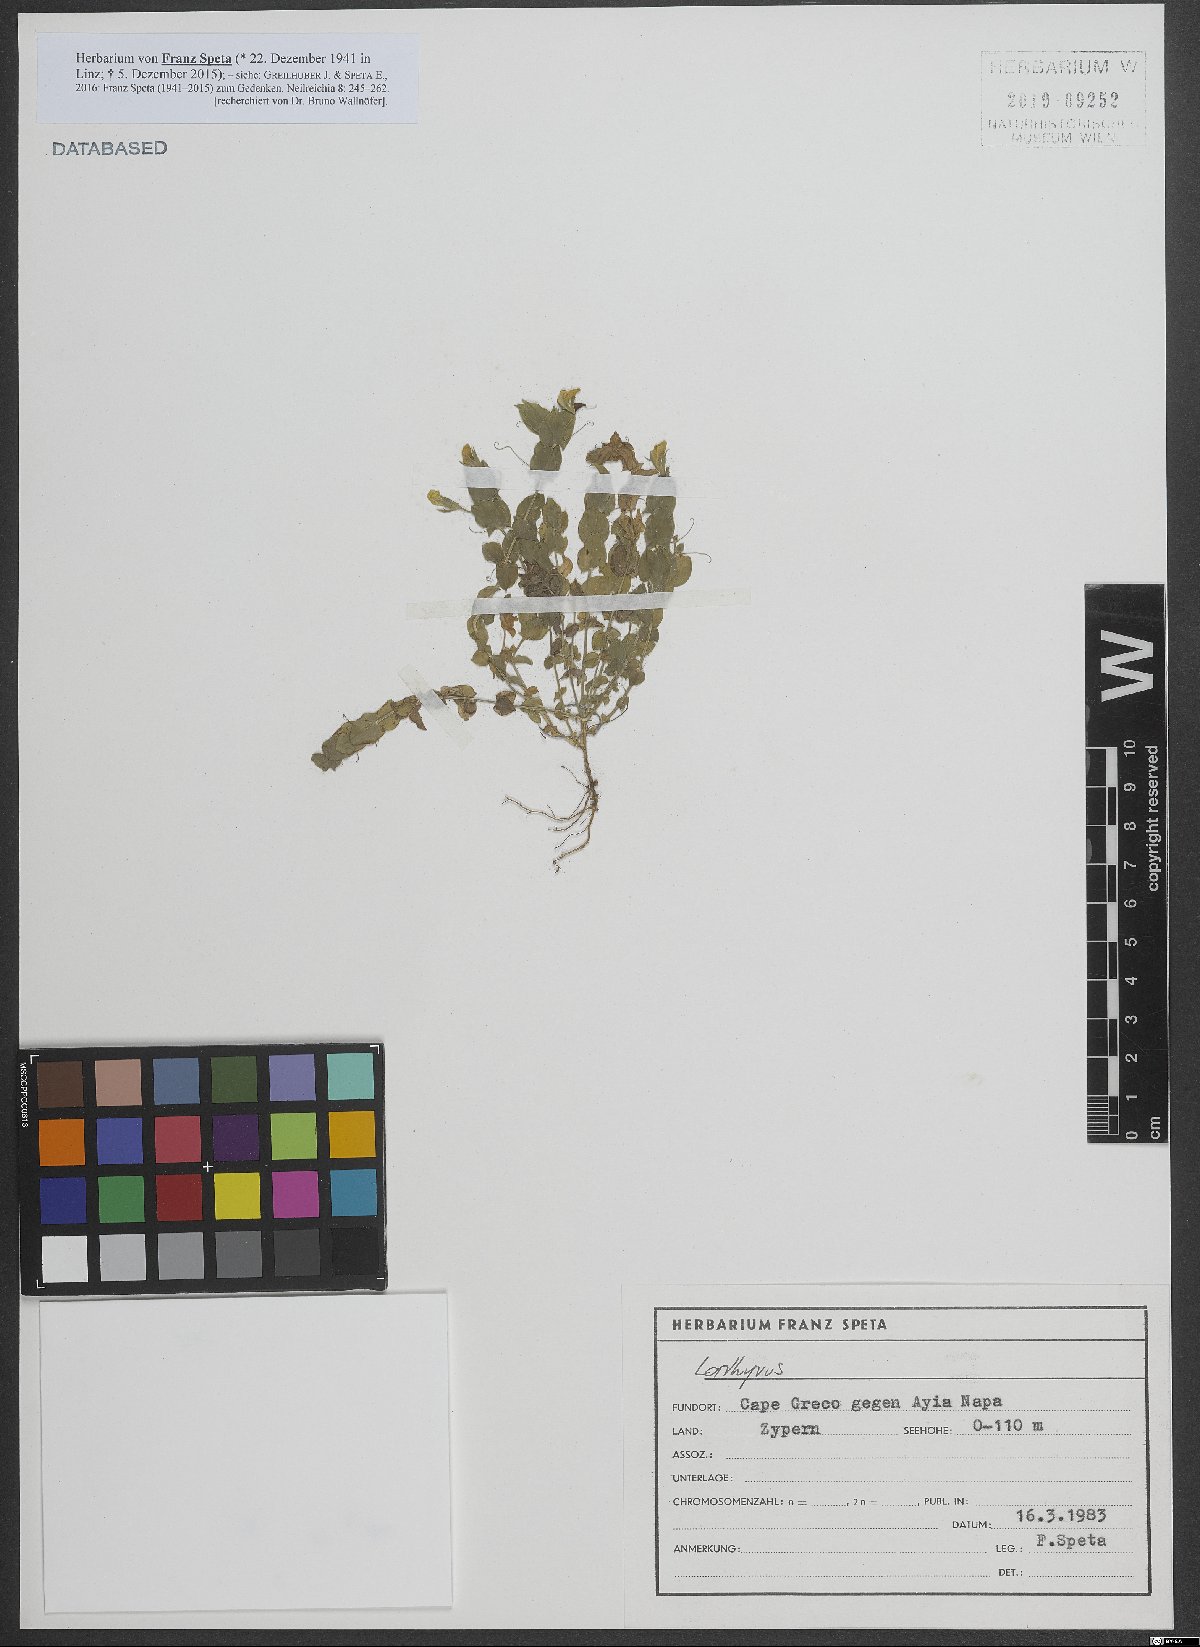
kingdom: Plantae
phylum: Tracheophyta
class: Magnoliopsida
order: Fabales
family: Fabaceae
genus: Lathyrus
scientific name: Lathyrus
